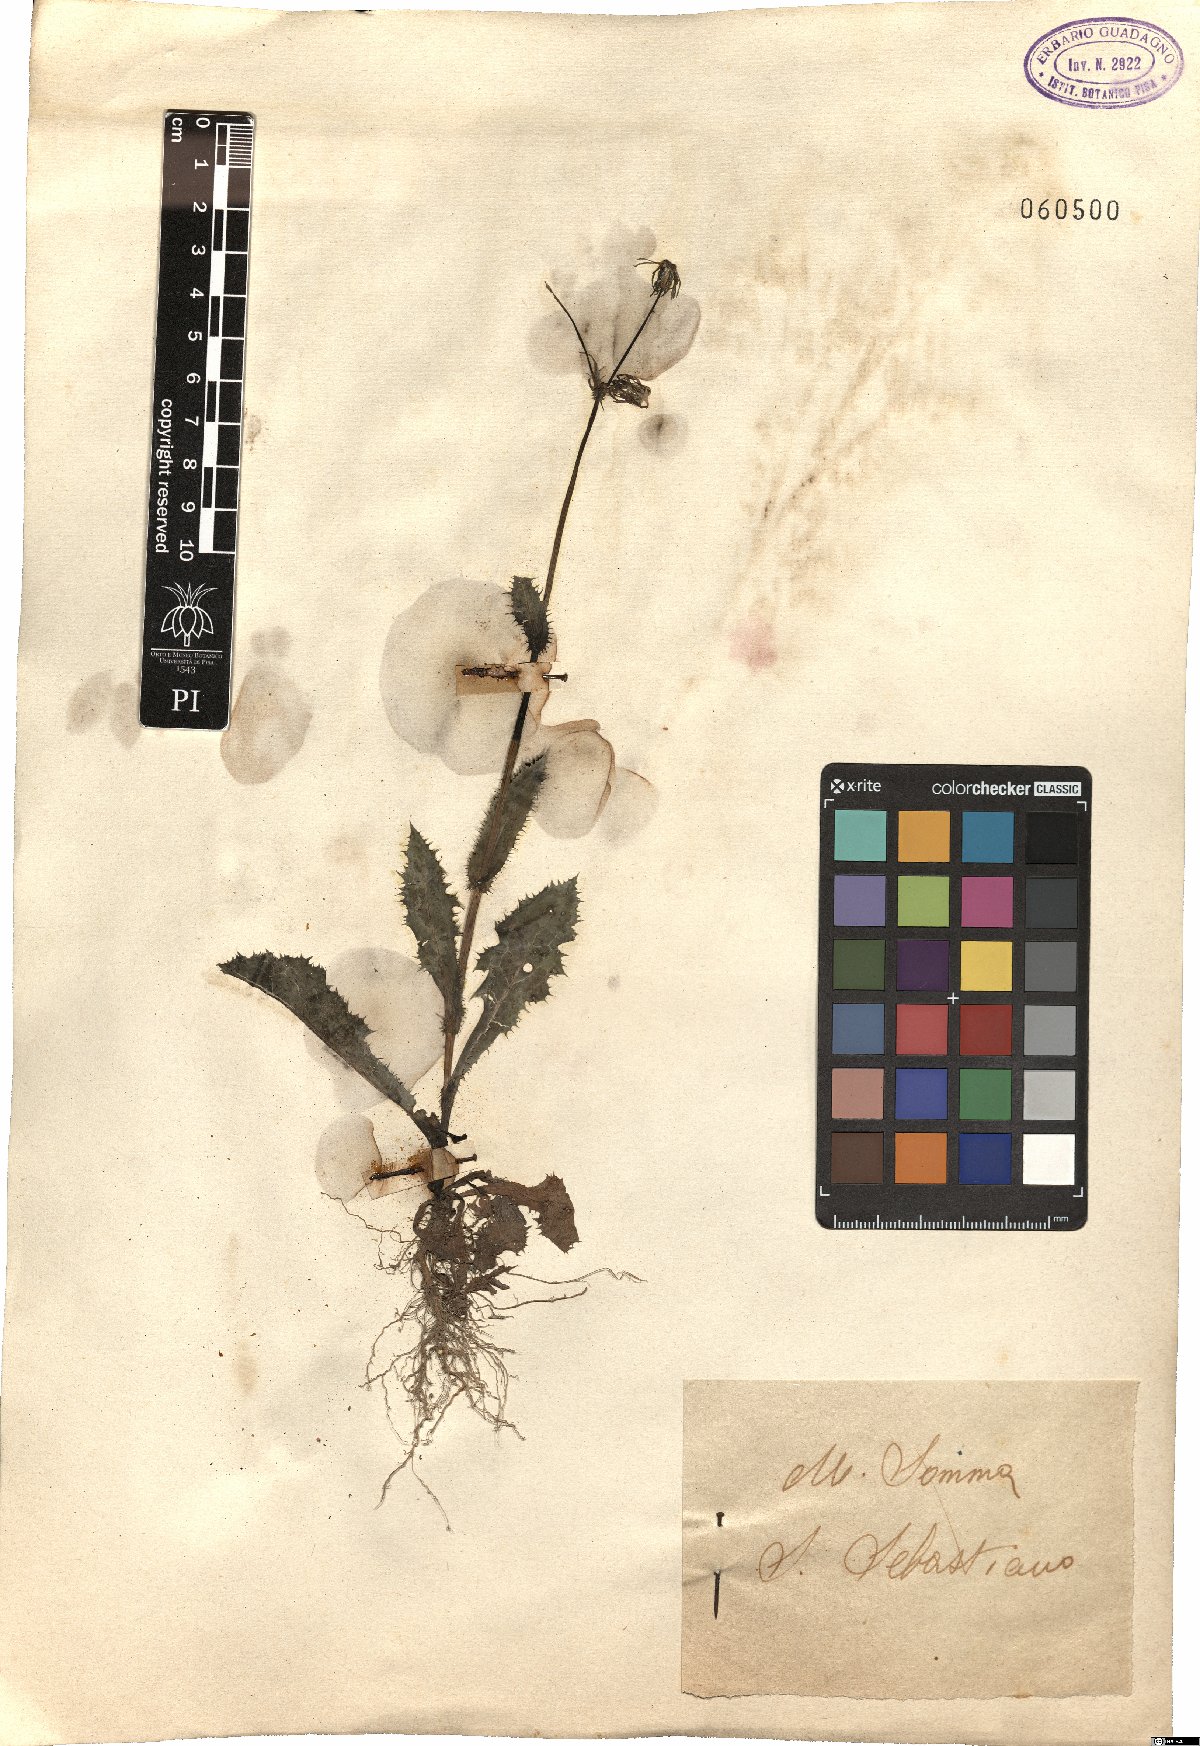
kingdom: Plantae
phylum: Tracheophyta
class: Magnoliopsida
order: Asterales
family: Asteraceae
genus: Sonchus
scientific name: Sonchus asper
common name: Prickly sow-thistle
